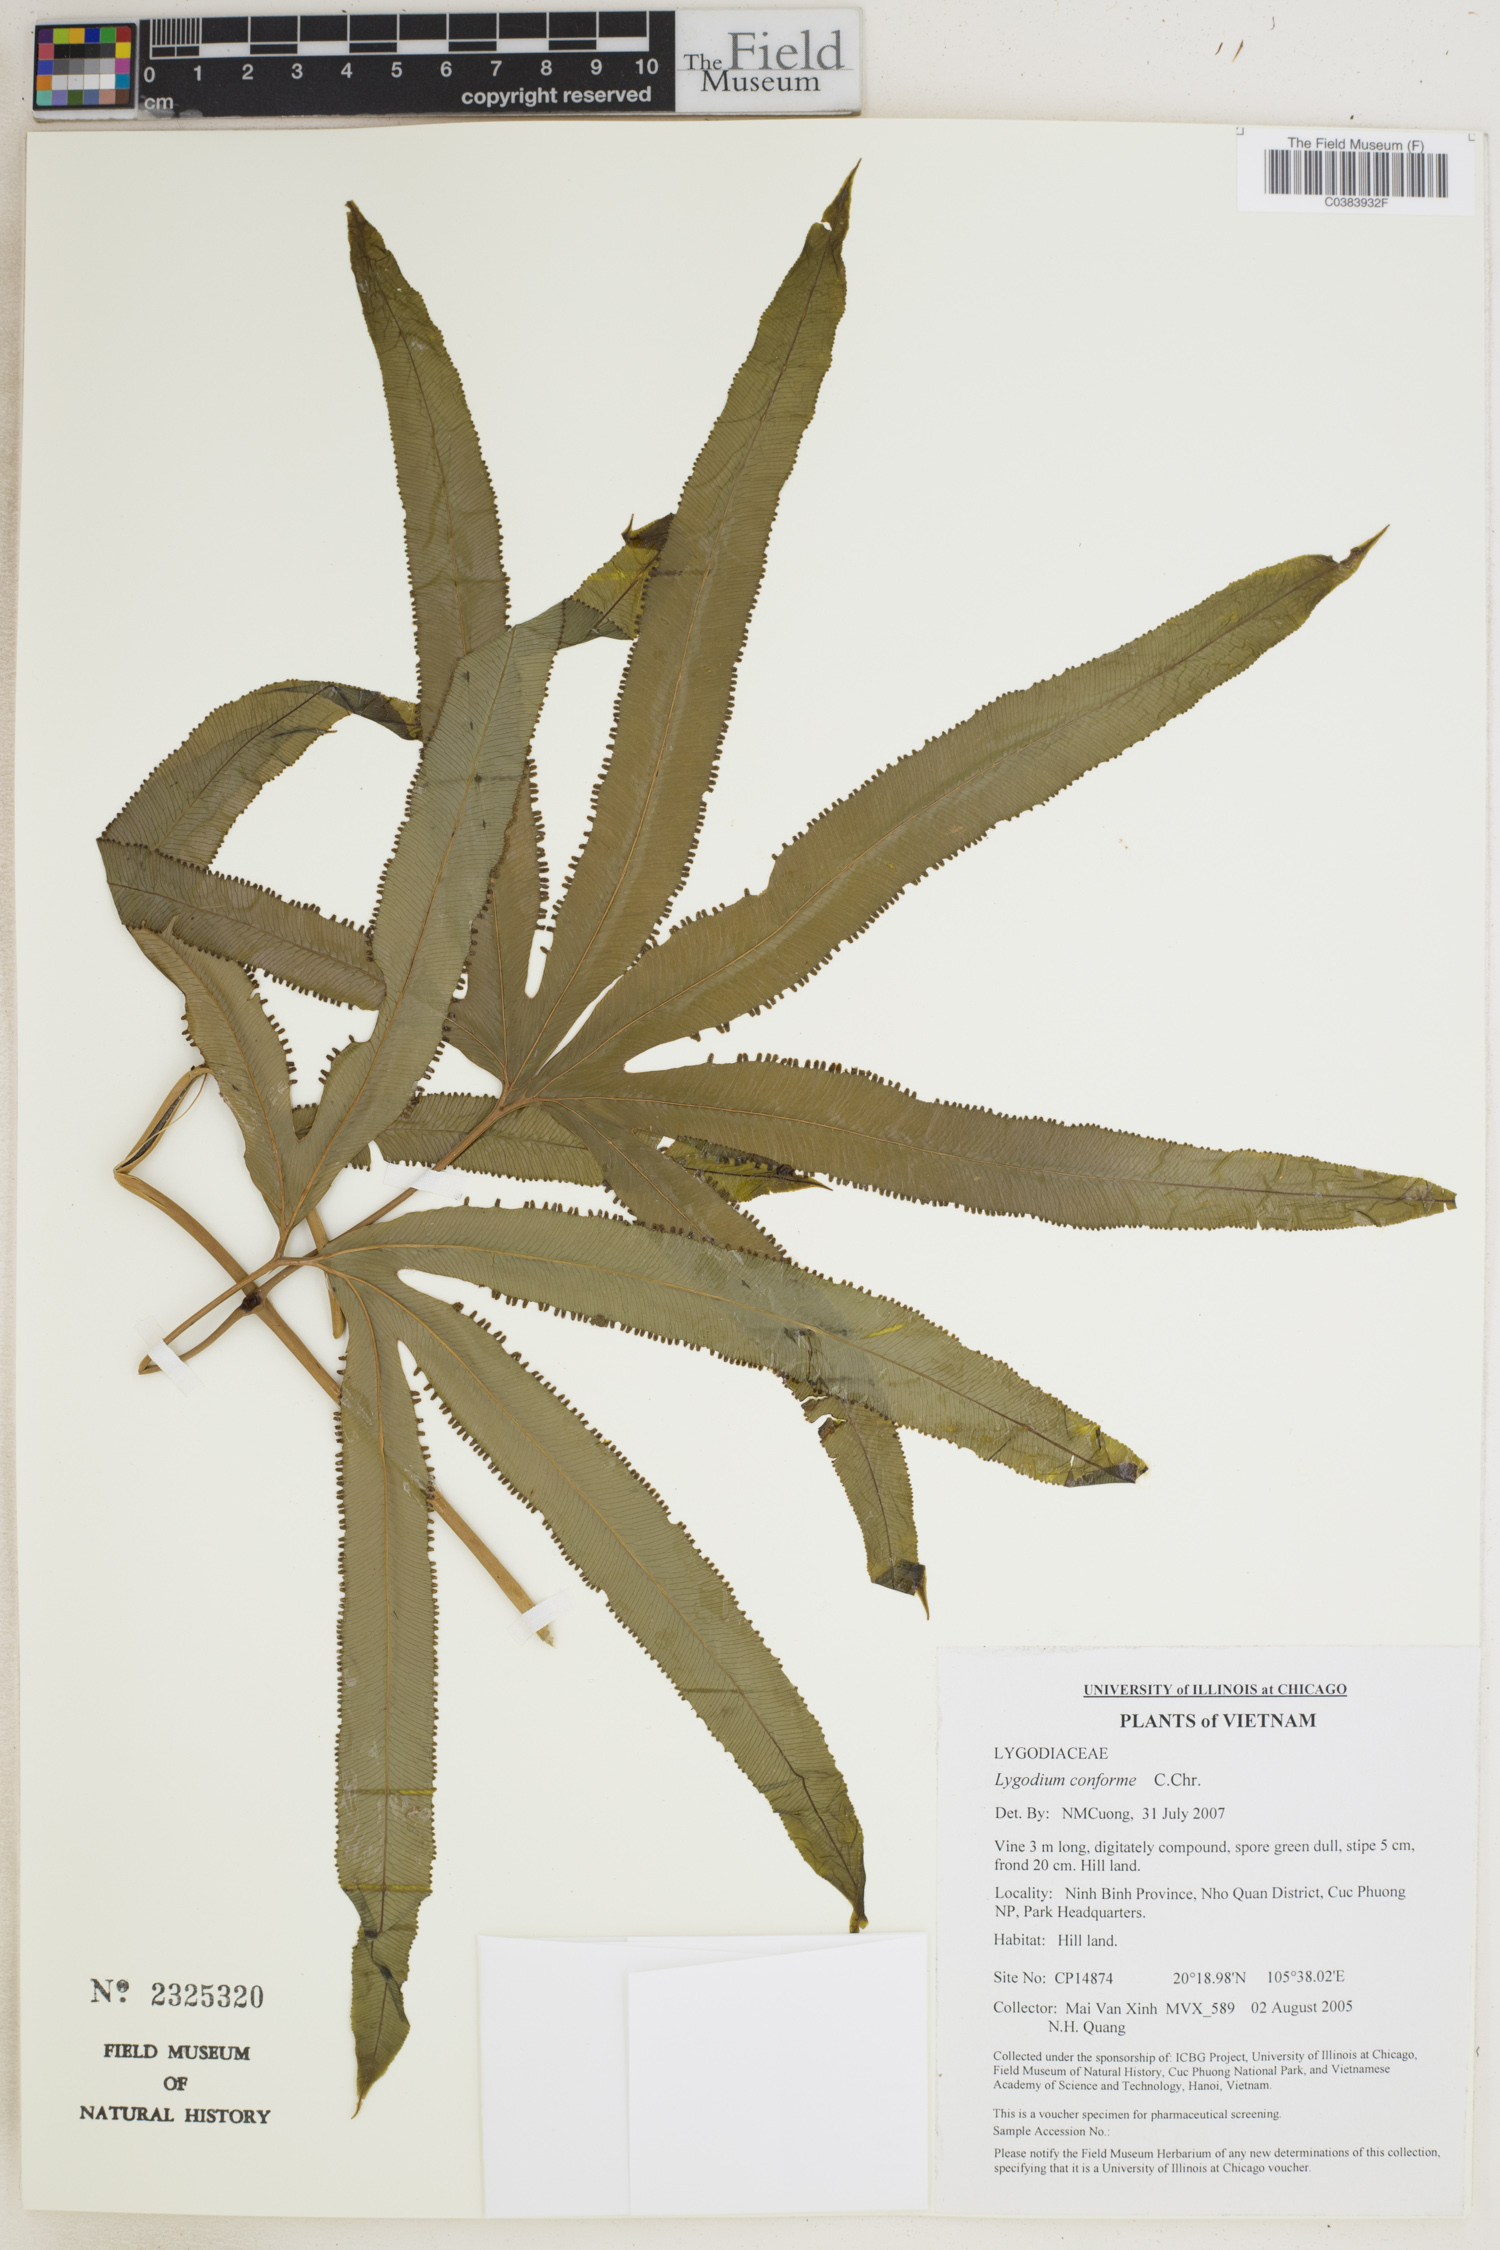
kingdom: Plantae
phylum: Tracheophyta
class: Polypodiopsida
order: Schizaeales
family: Lygodiaceae
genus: Lygodium
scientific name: Lygodium circinnatum
